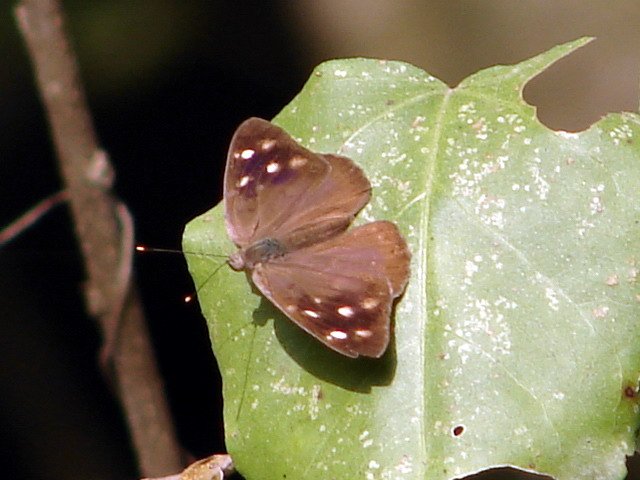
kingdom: Animalia
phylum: Arthropoda
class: Insecta
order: Lepidoptera
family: Nymphalidae
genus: Eunica
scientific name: Eunica monima
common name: Dingy Purplewing
